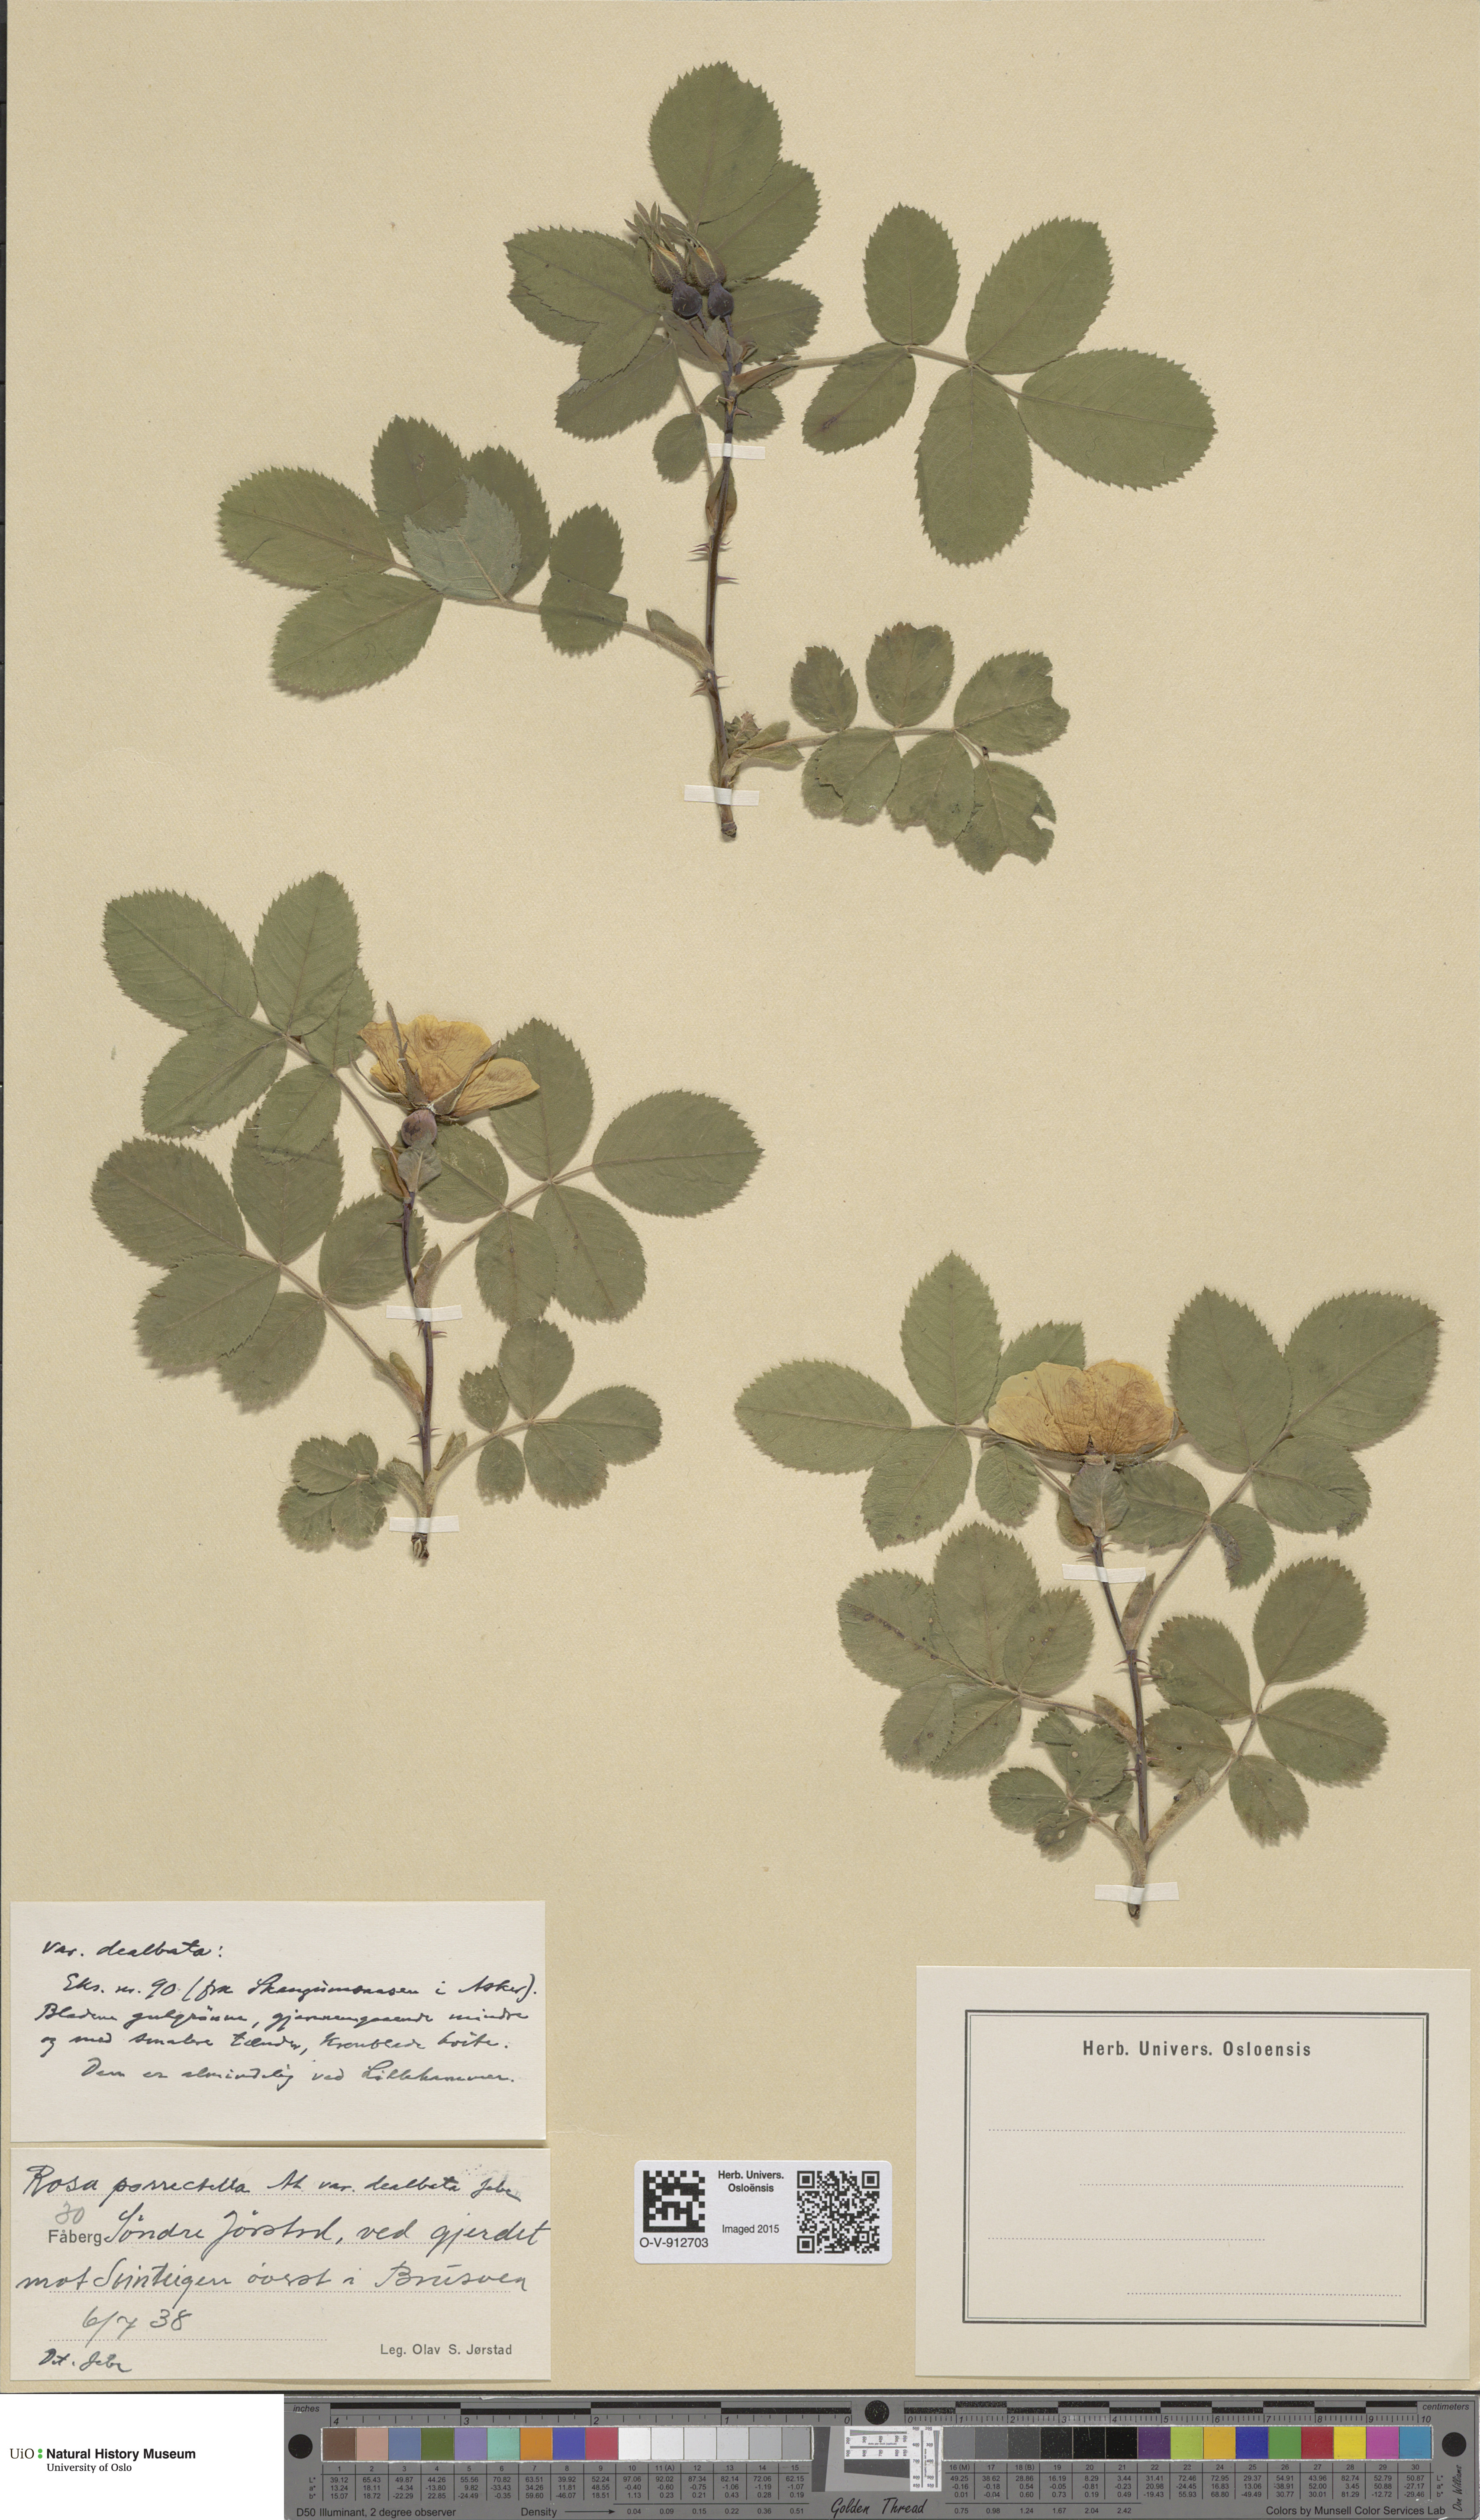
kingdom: Plantae
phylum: Tracheophyta
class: Magnoliopsida
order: Rosales
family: Rosaceae
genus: Rosa
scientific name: Rosa mollis
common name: Rose
